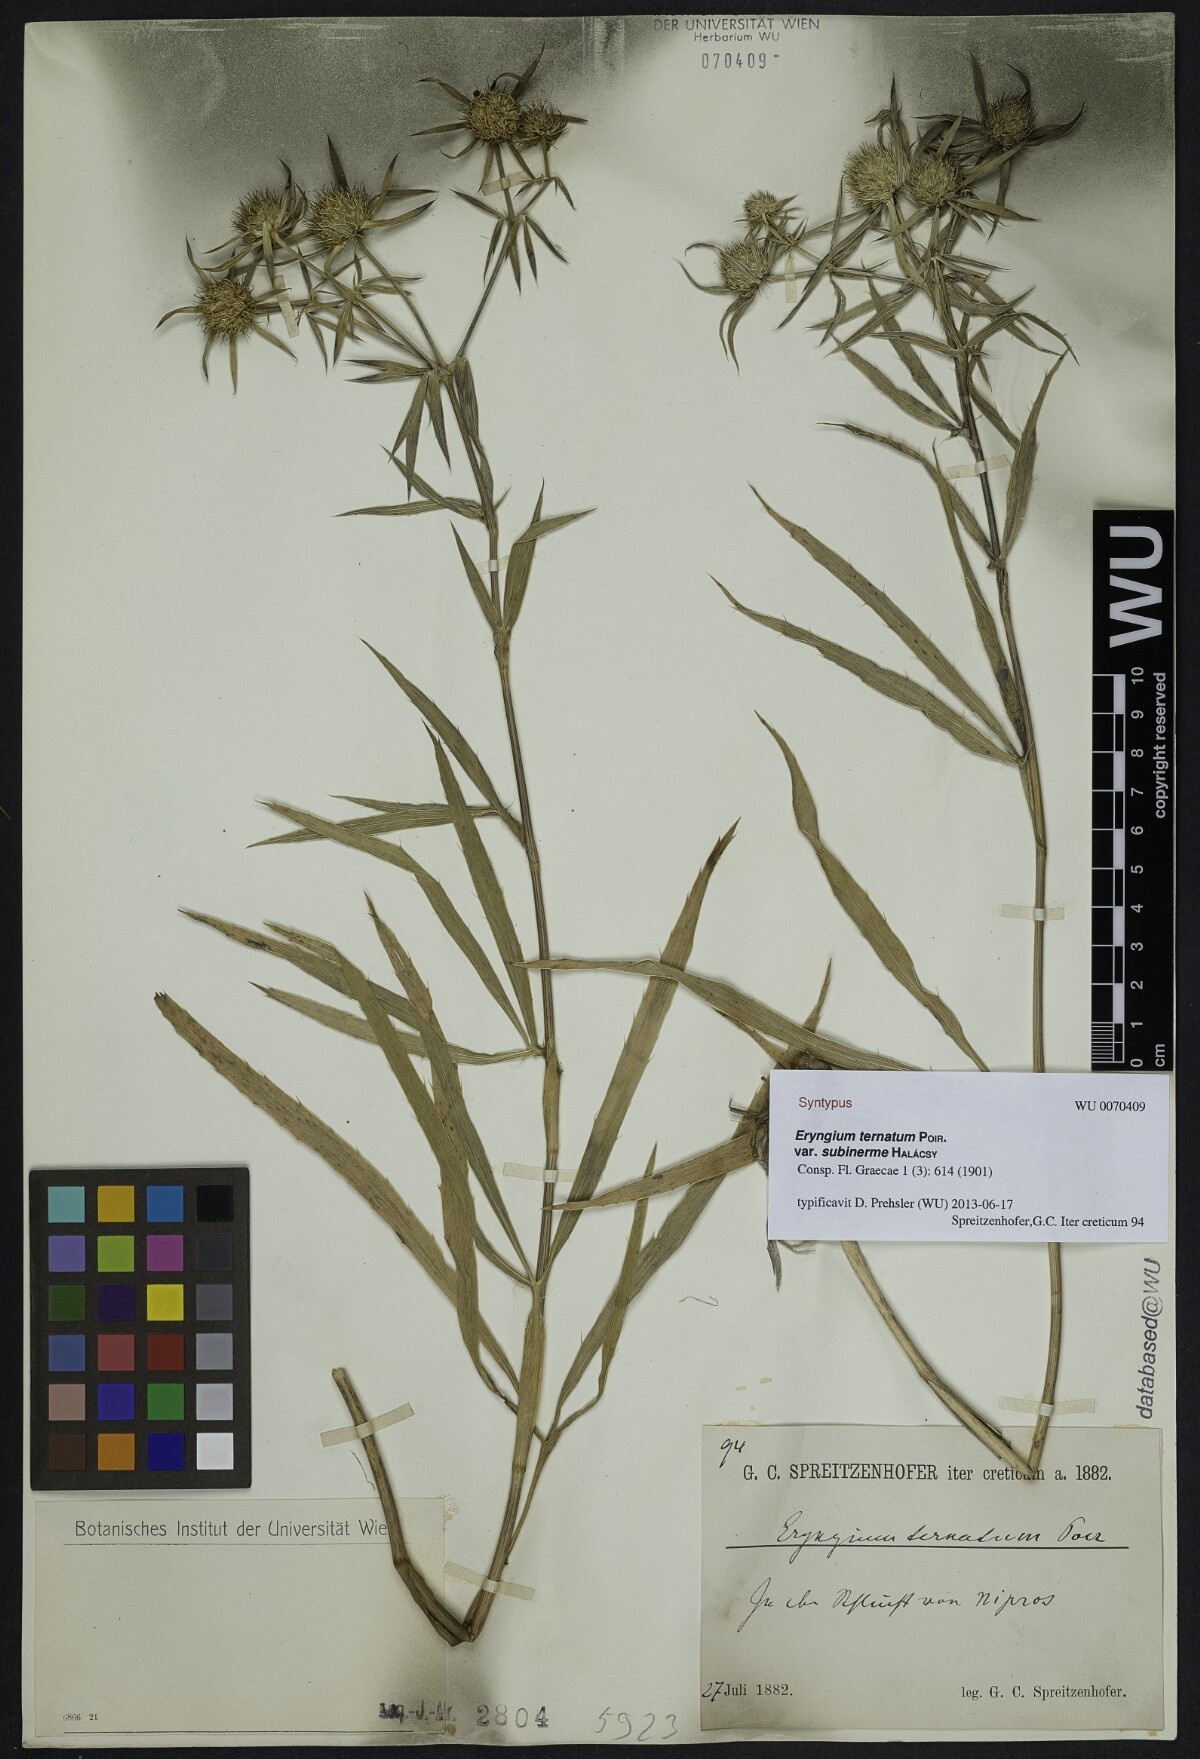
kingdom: Plantae
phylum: Tracheophyta
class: Magnoliopsida
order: Apiales
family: Apiaceae
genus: Eryngium
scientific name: Eryngium ternatum
